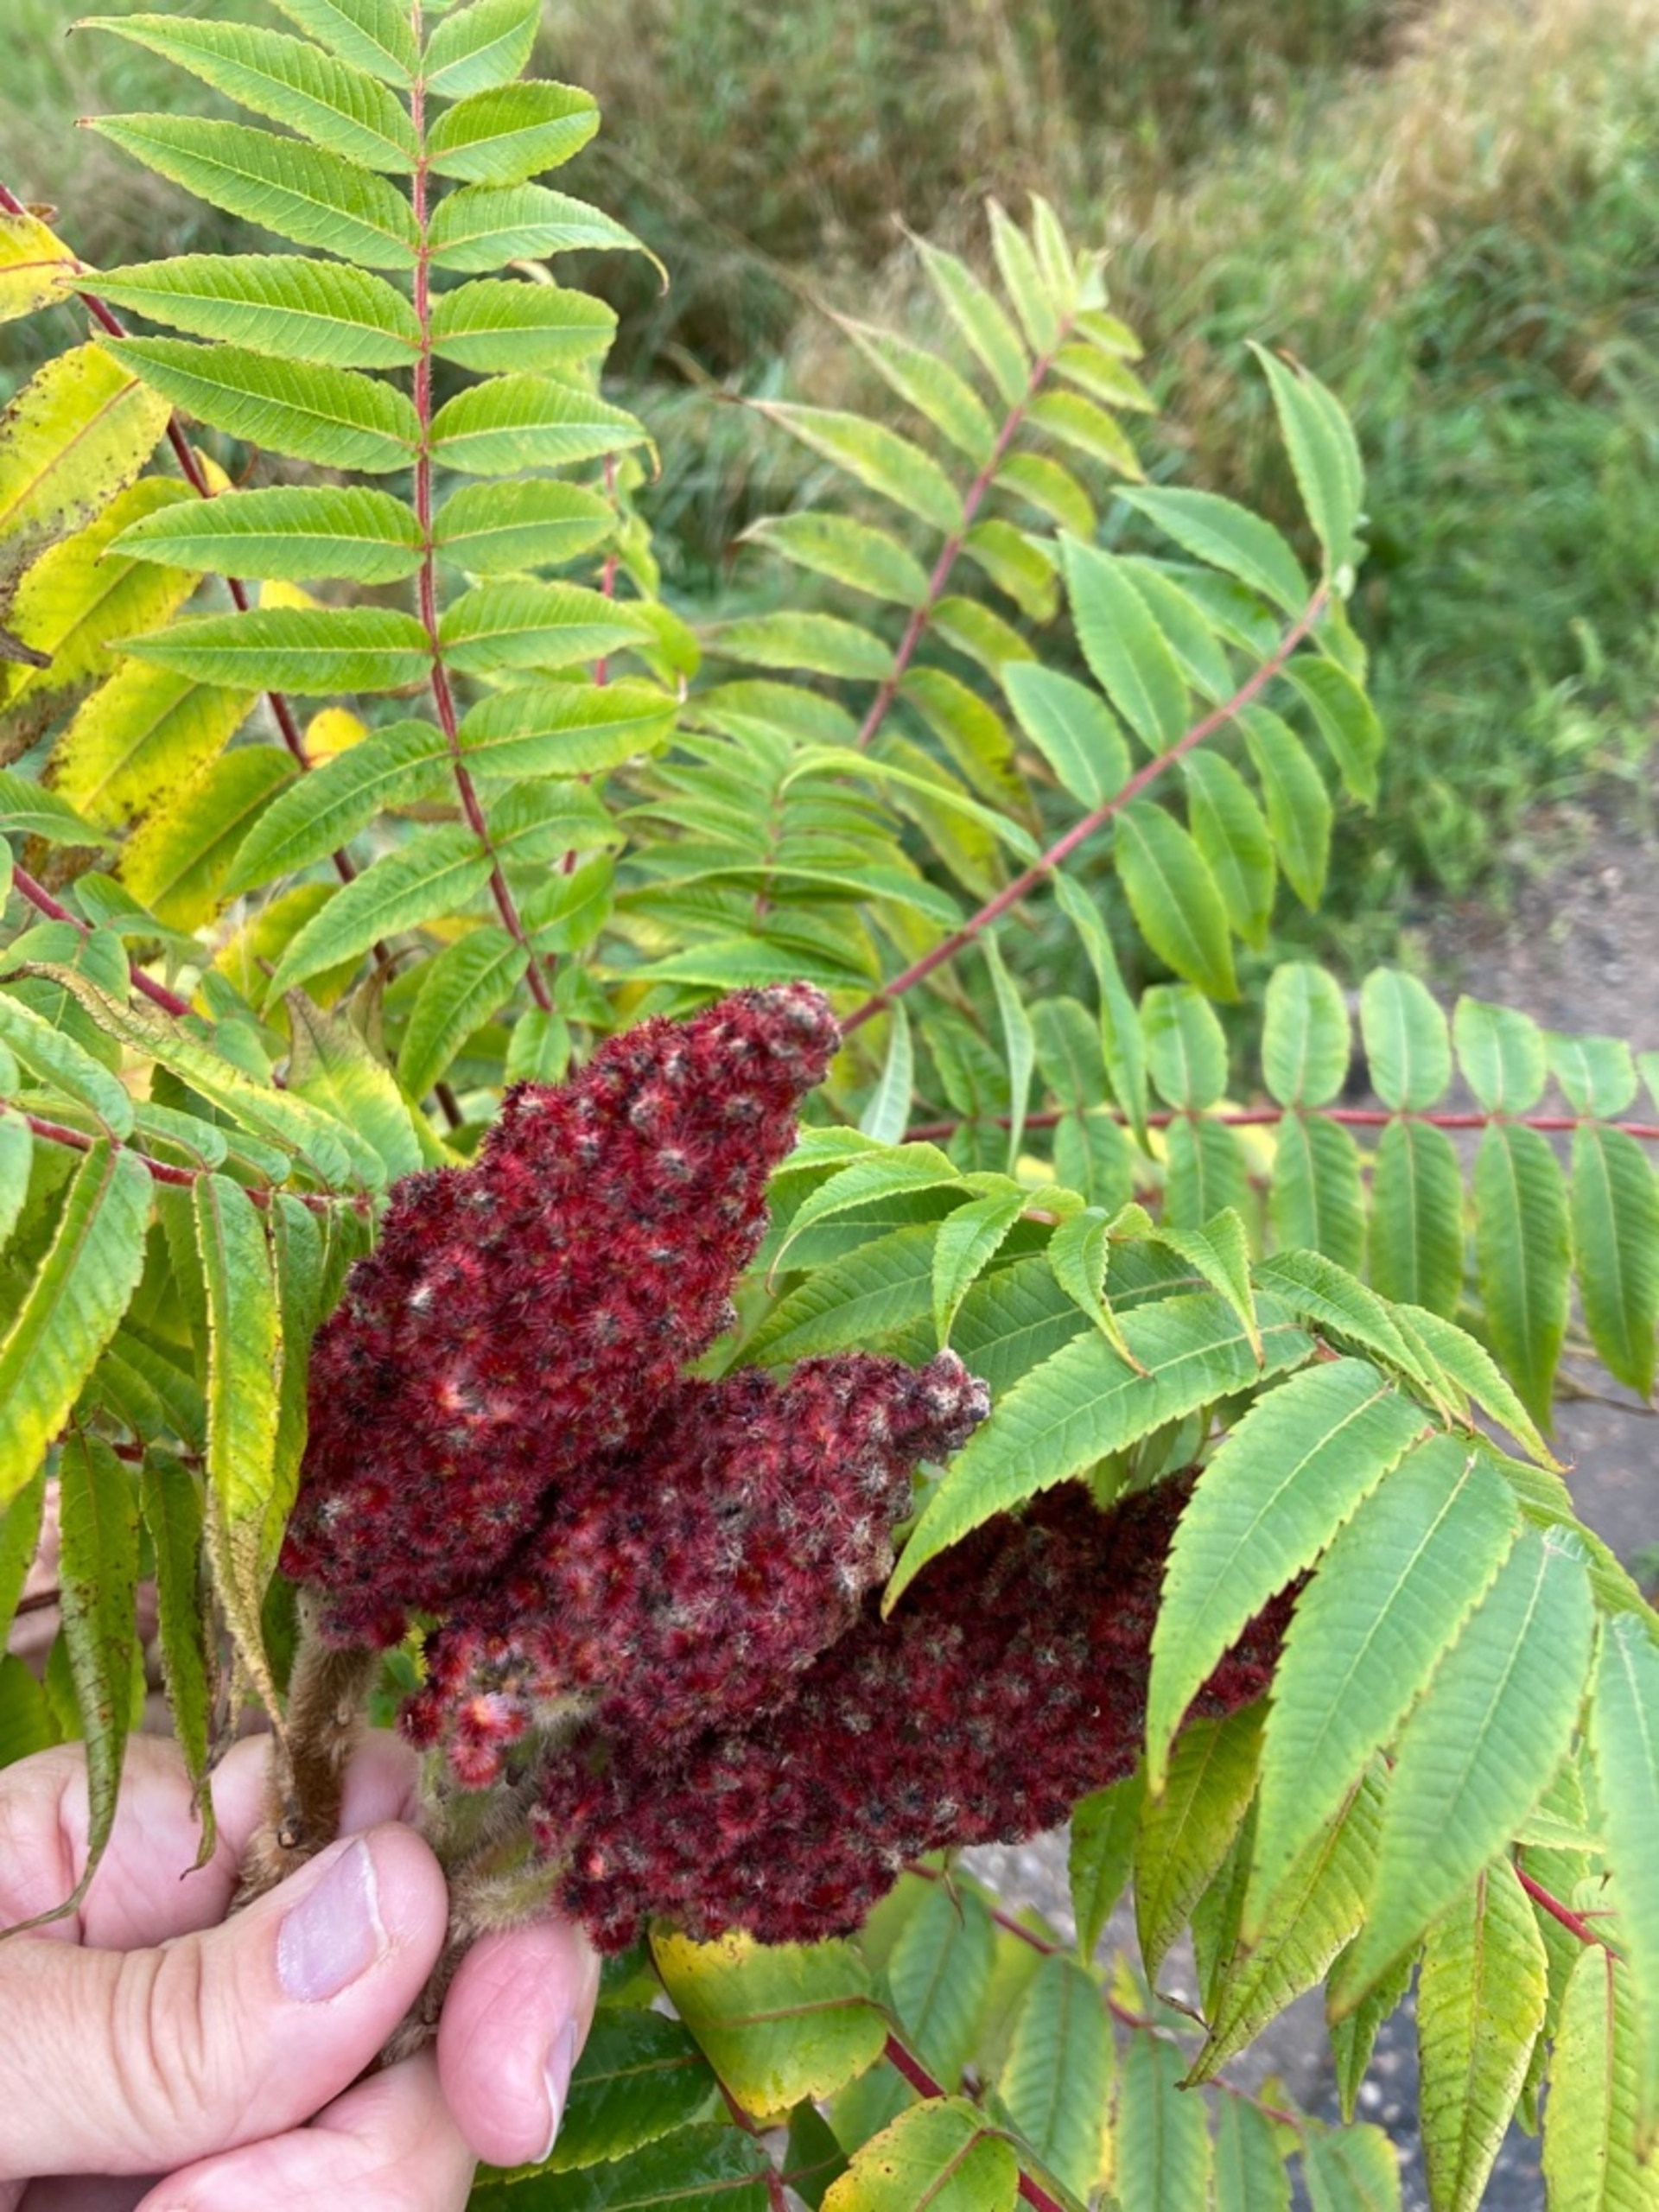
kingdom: Plantae
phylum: Tracheophyta
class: Magnoliopsida
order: Sapindales
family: Anacardiaceae
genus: Rhus
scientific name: Rhus typhina
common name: Hjortetaktræ
